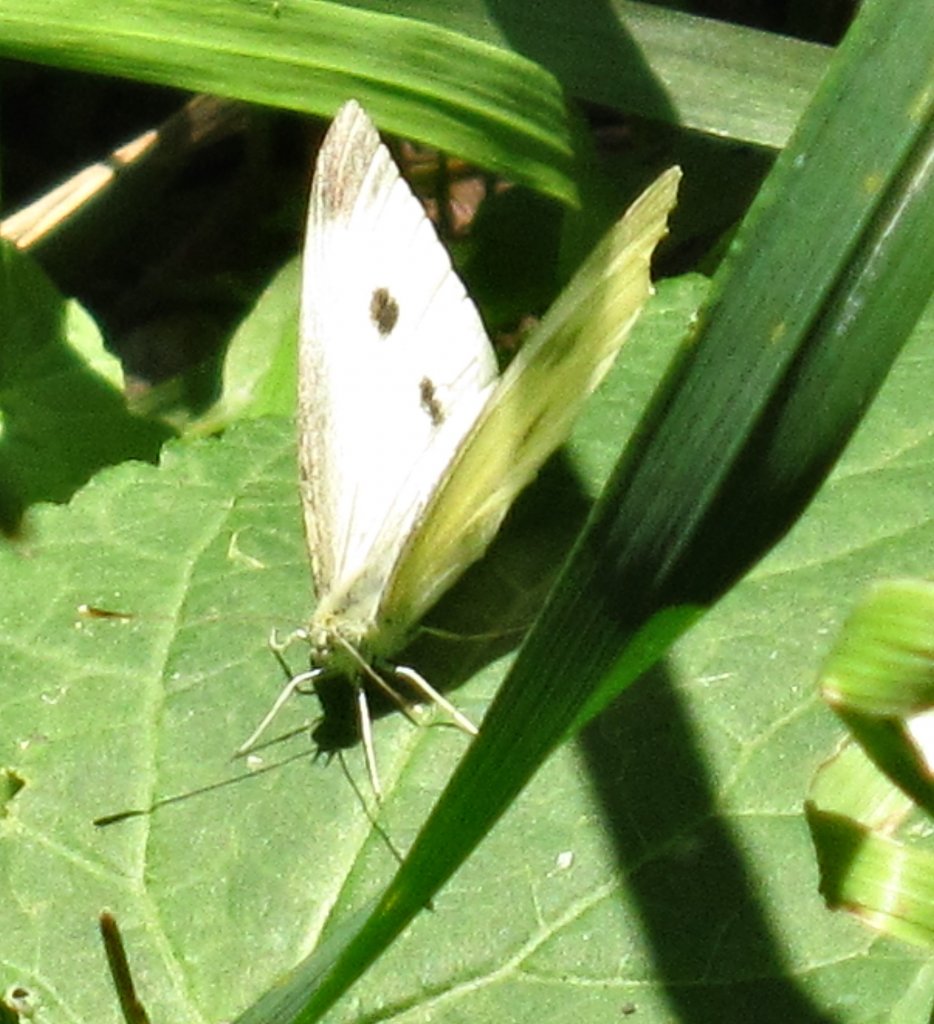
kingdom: Animalia
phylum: Arthropoda
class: Insecta
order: Lepidoptera
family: Pieridae
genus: Pieris
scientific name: Pieris rapae
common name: Cabbage White
